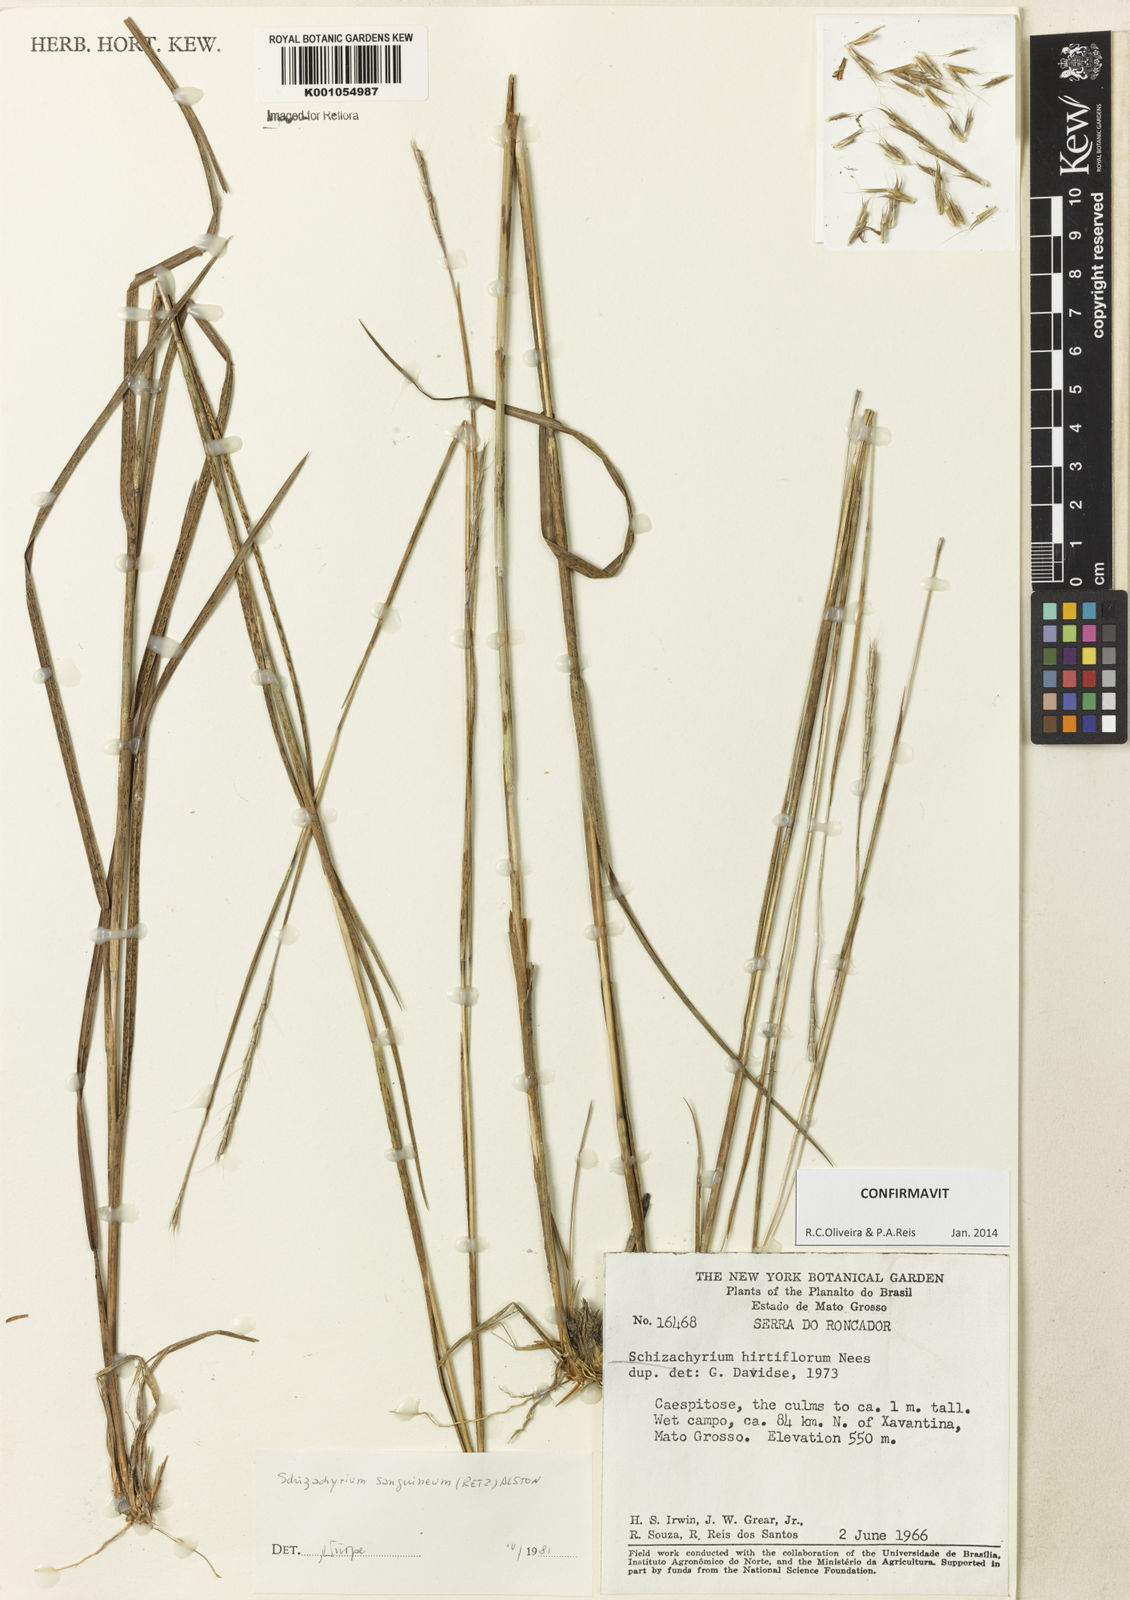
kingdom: Plantae
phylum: Tracheophyta
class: Liliopsida
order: Poales
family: Poaceae
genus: Schizachyrium
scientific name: Schizachyrium sanguineum
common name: Crimson bluestem
